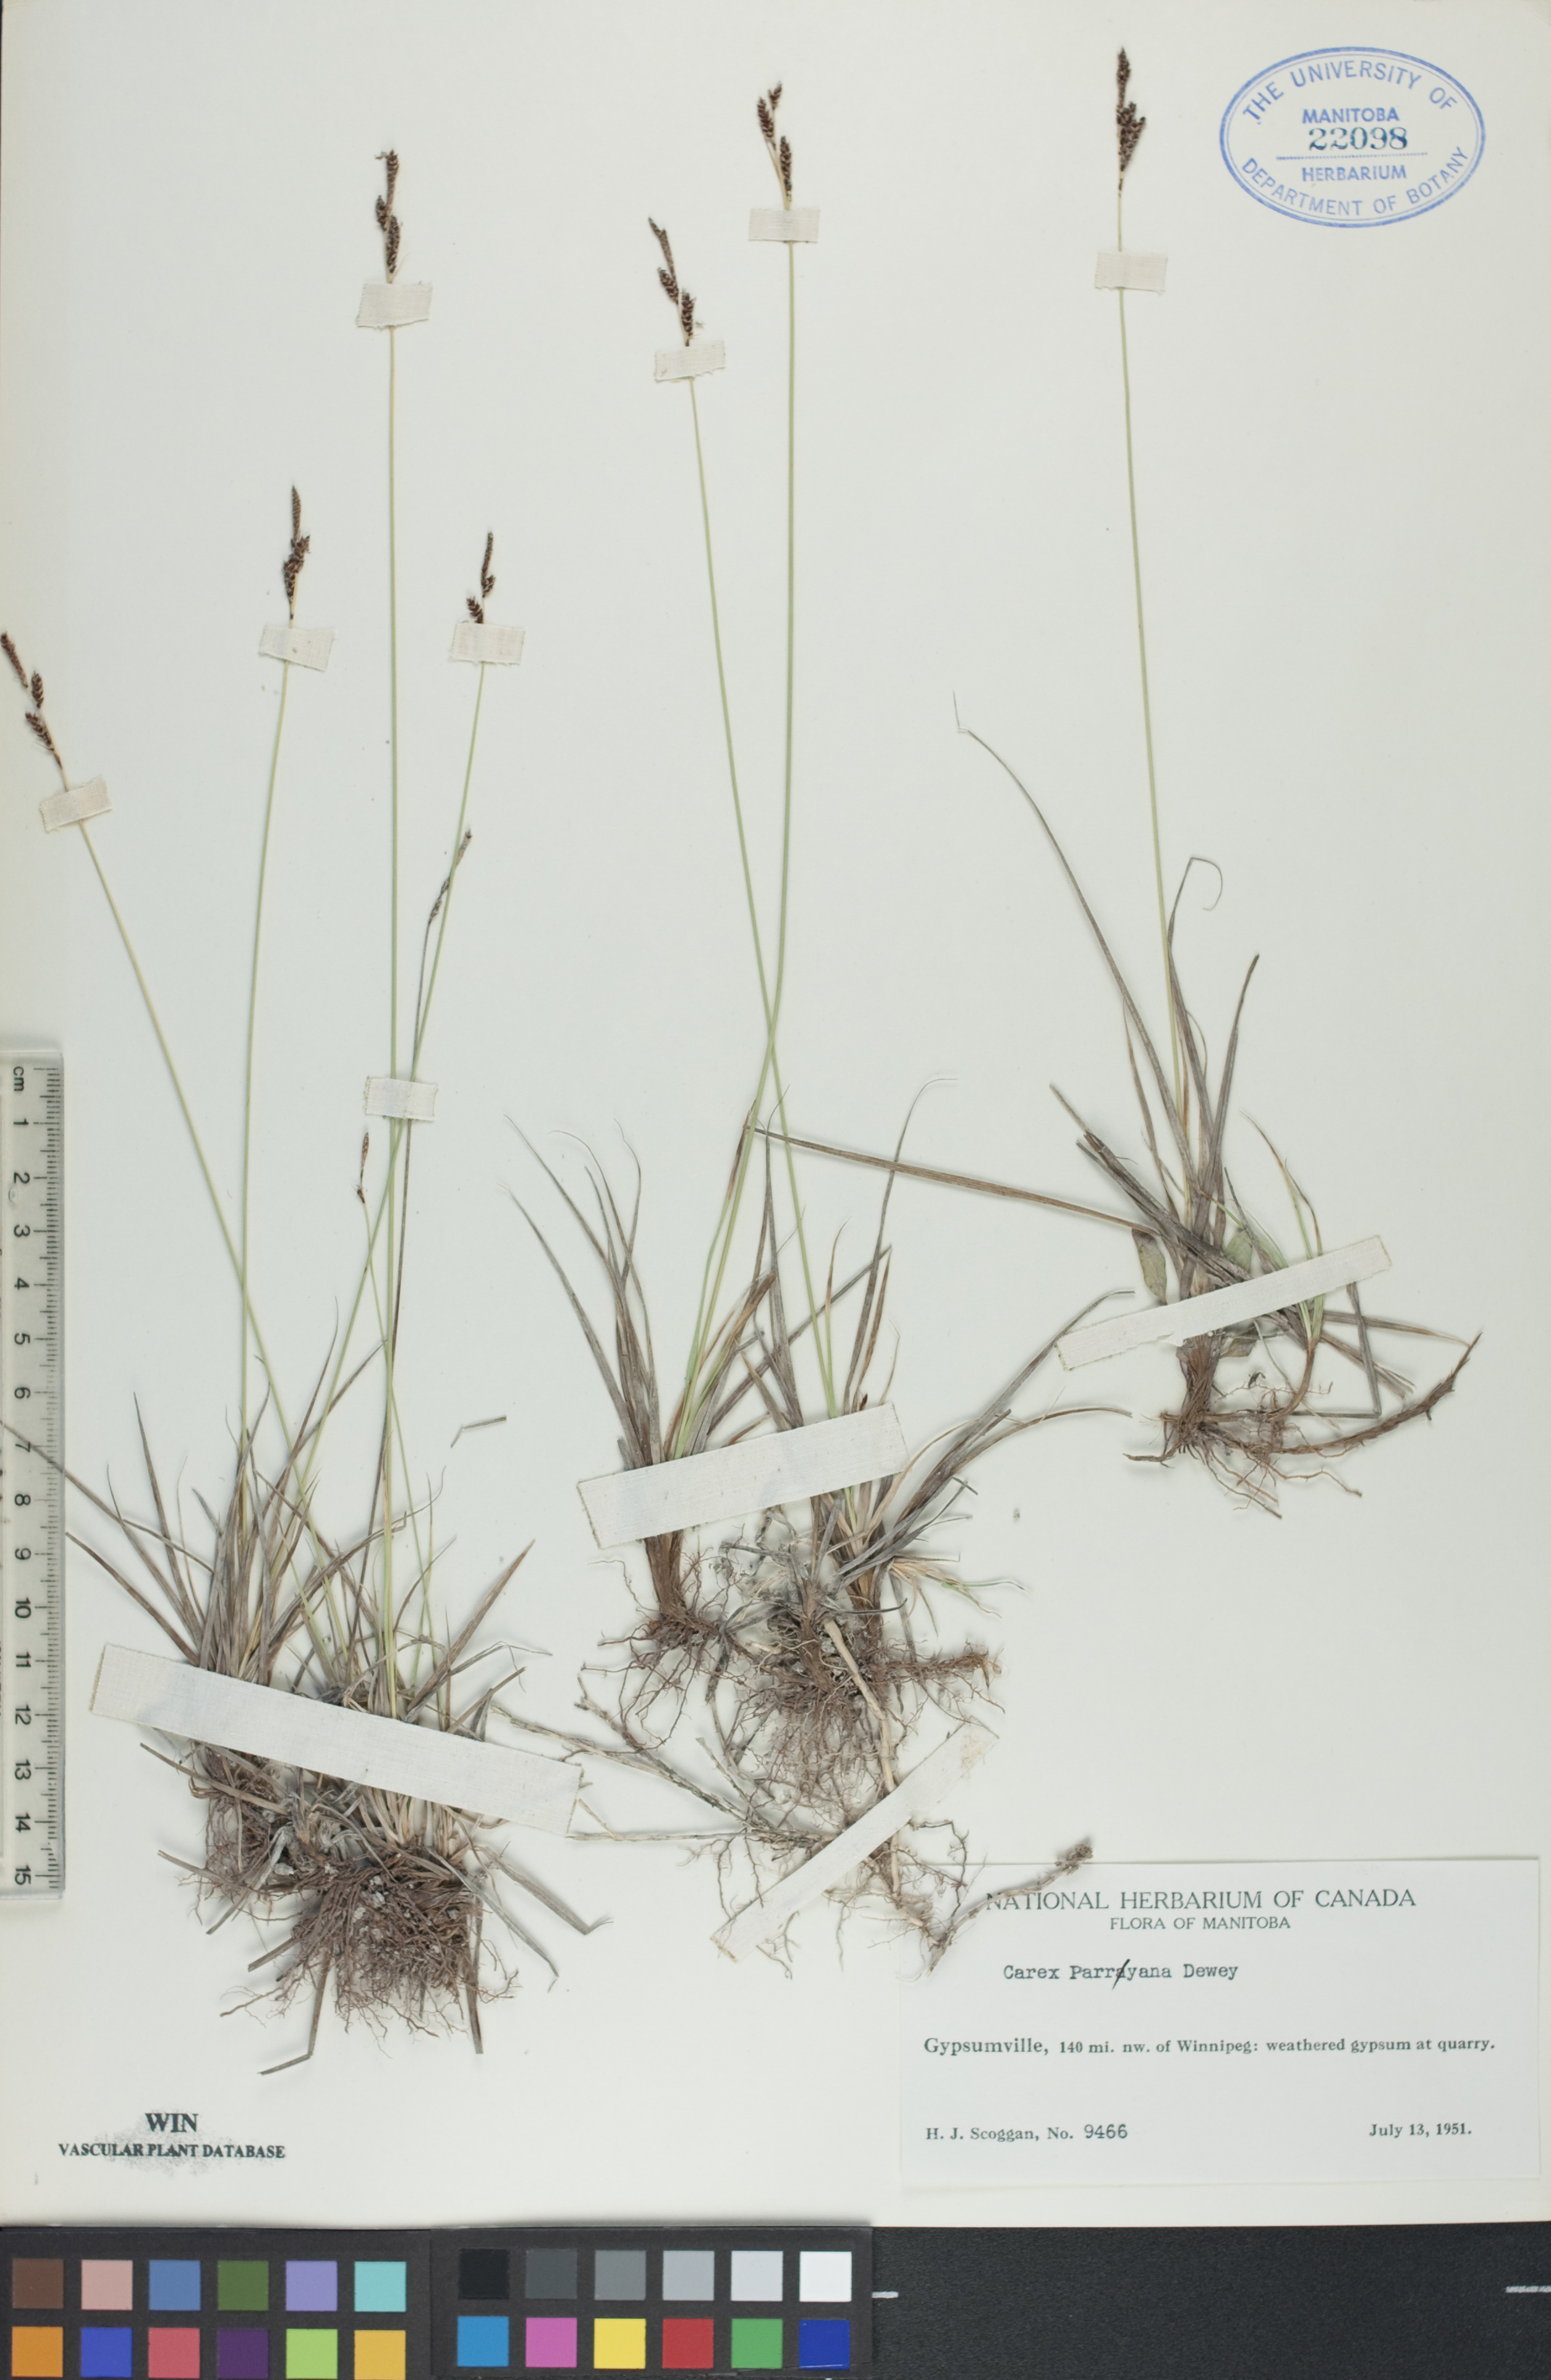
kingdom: Plantae
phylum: Tracheophyta
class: Liliopsida
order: Poales
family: Cyperaceae
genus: Carex
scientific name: Carex parryana
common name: Parry's sedge
